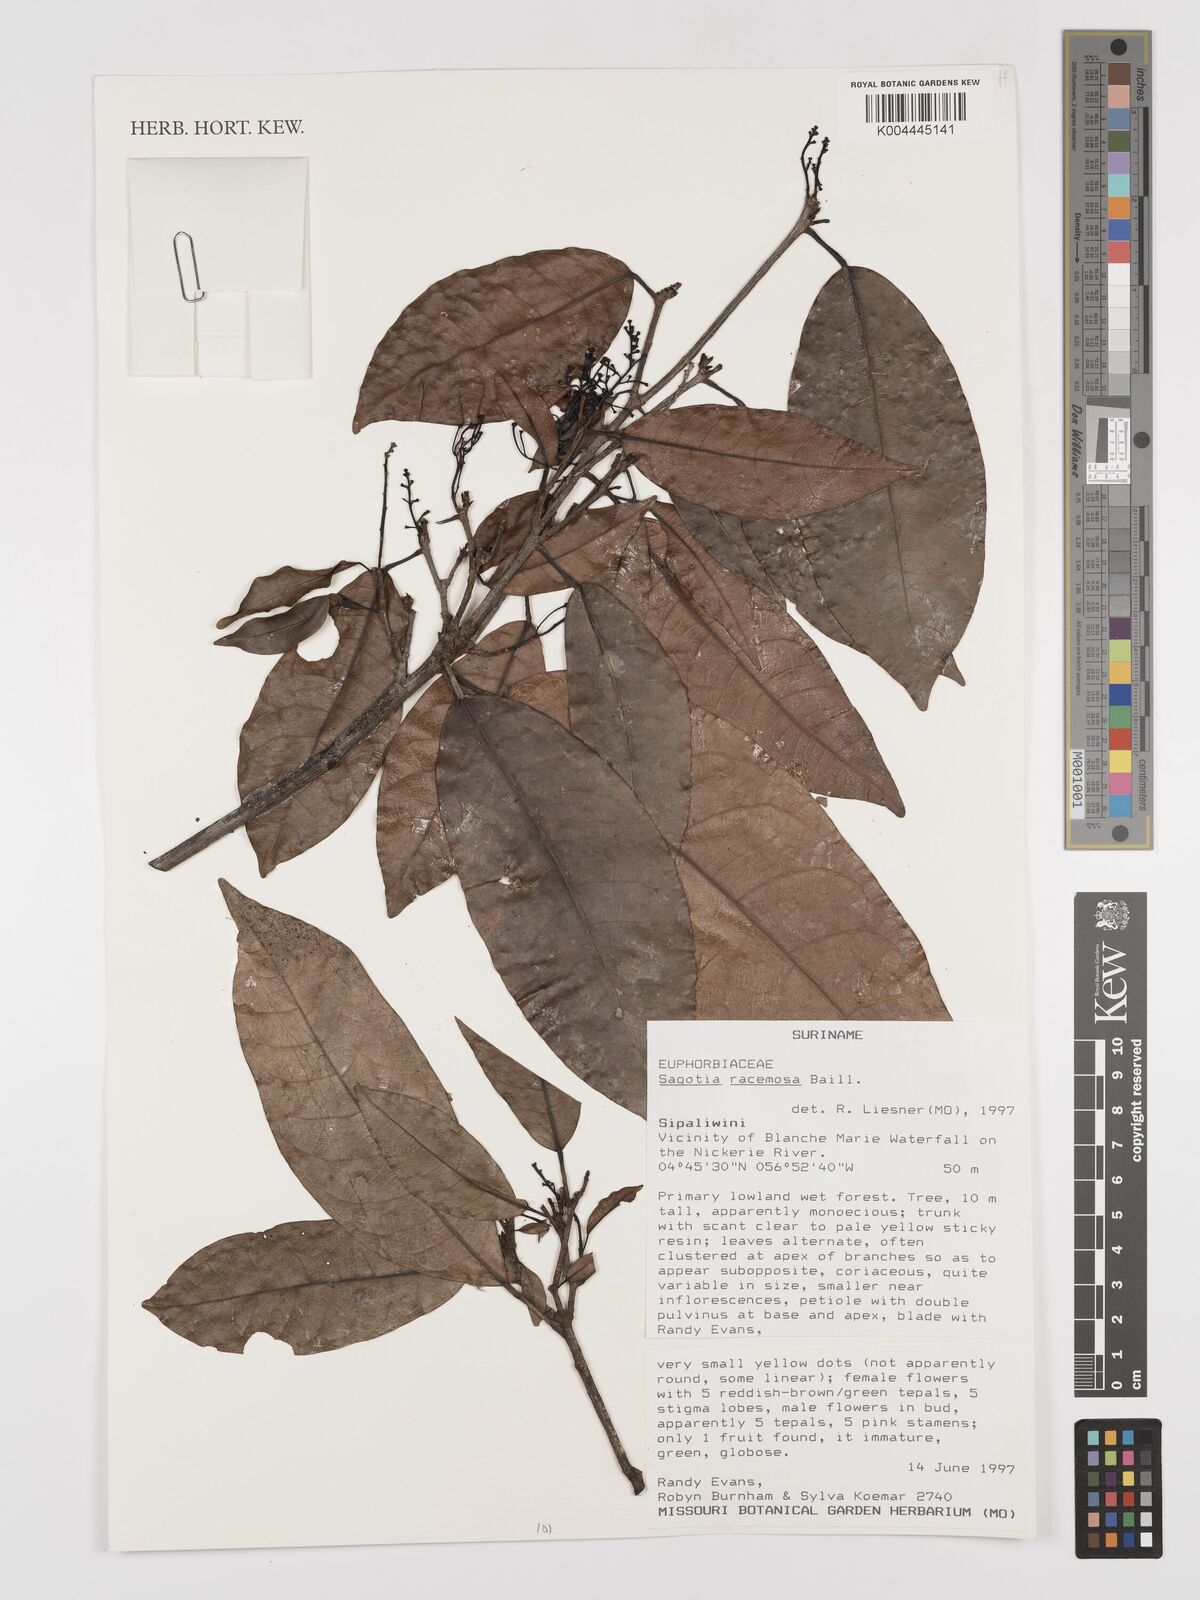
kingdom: Plantae
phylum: Tracheophyta
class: Magnoliopsida
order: Malpighiales
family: Euphorbiaceae
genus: Sagotia
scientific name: Sagotia racemosa
